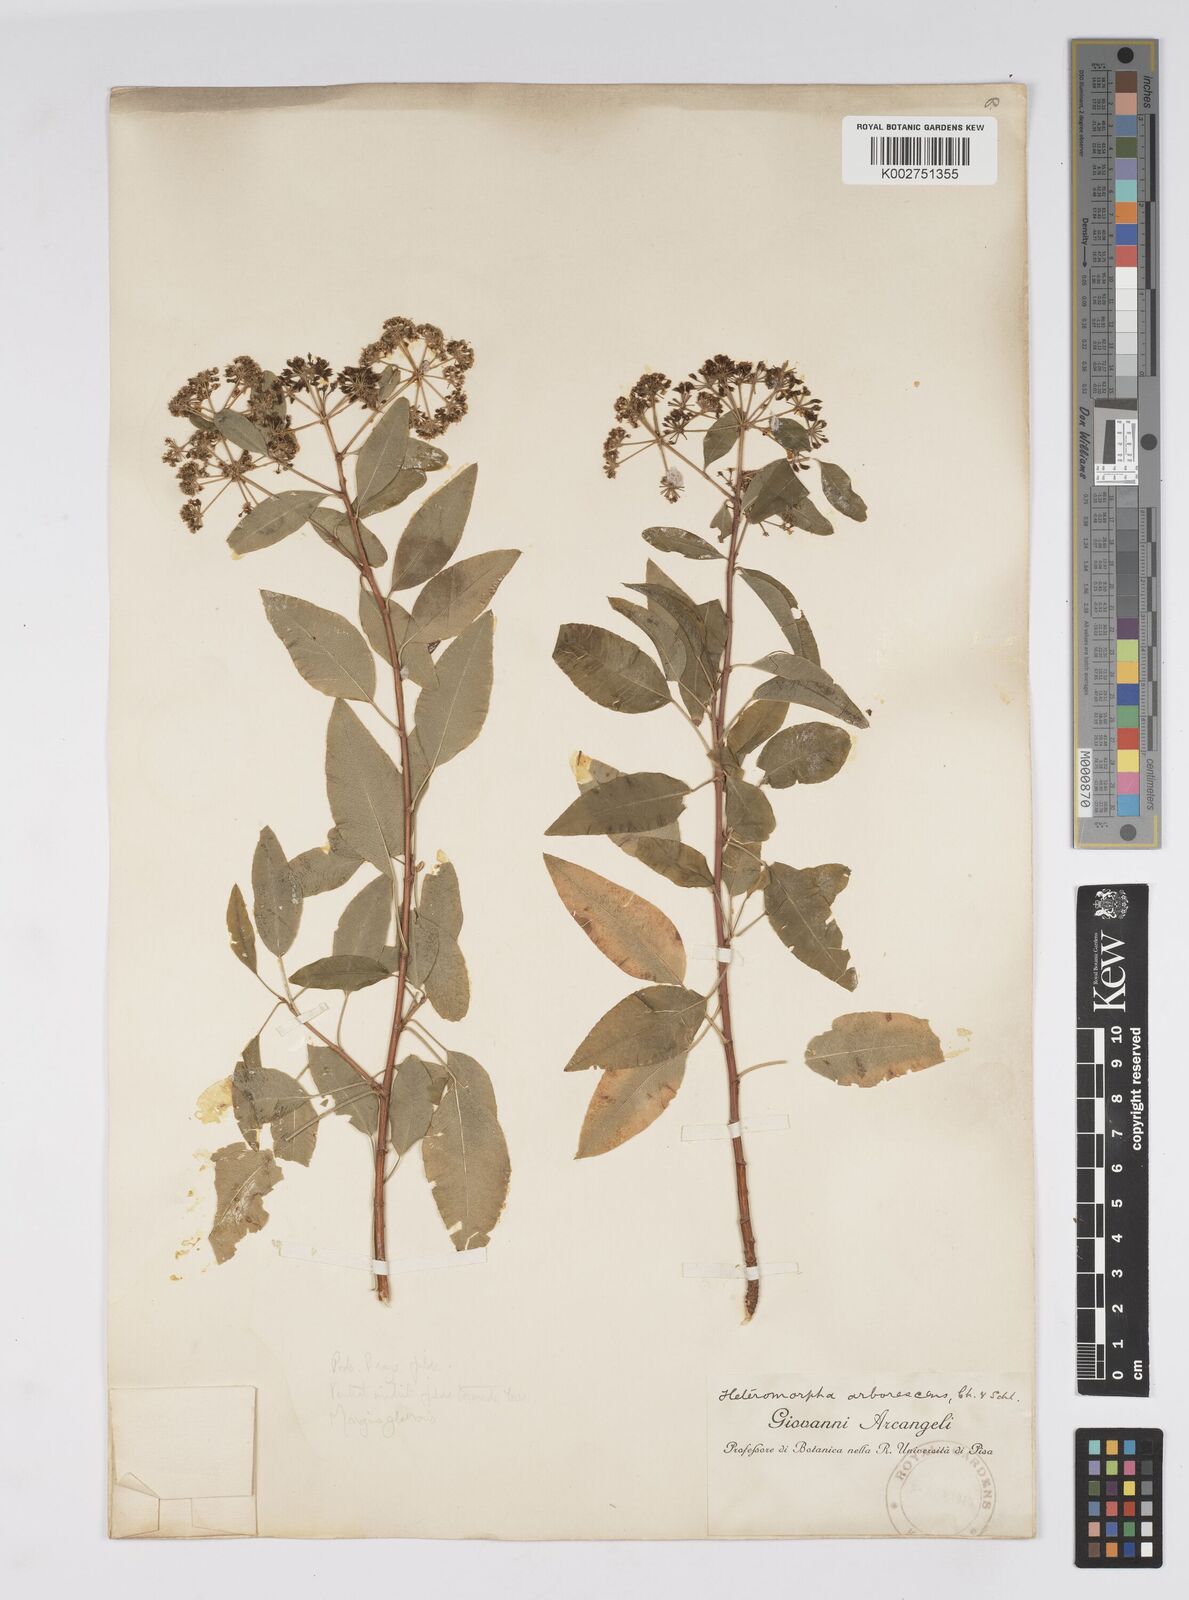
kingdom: Plantae
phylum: Tracheophyta
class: Magnoliopsida
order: Apiales
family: Apiaceae
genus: Heteromorpha
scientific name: Heteromorpha
